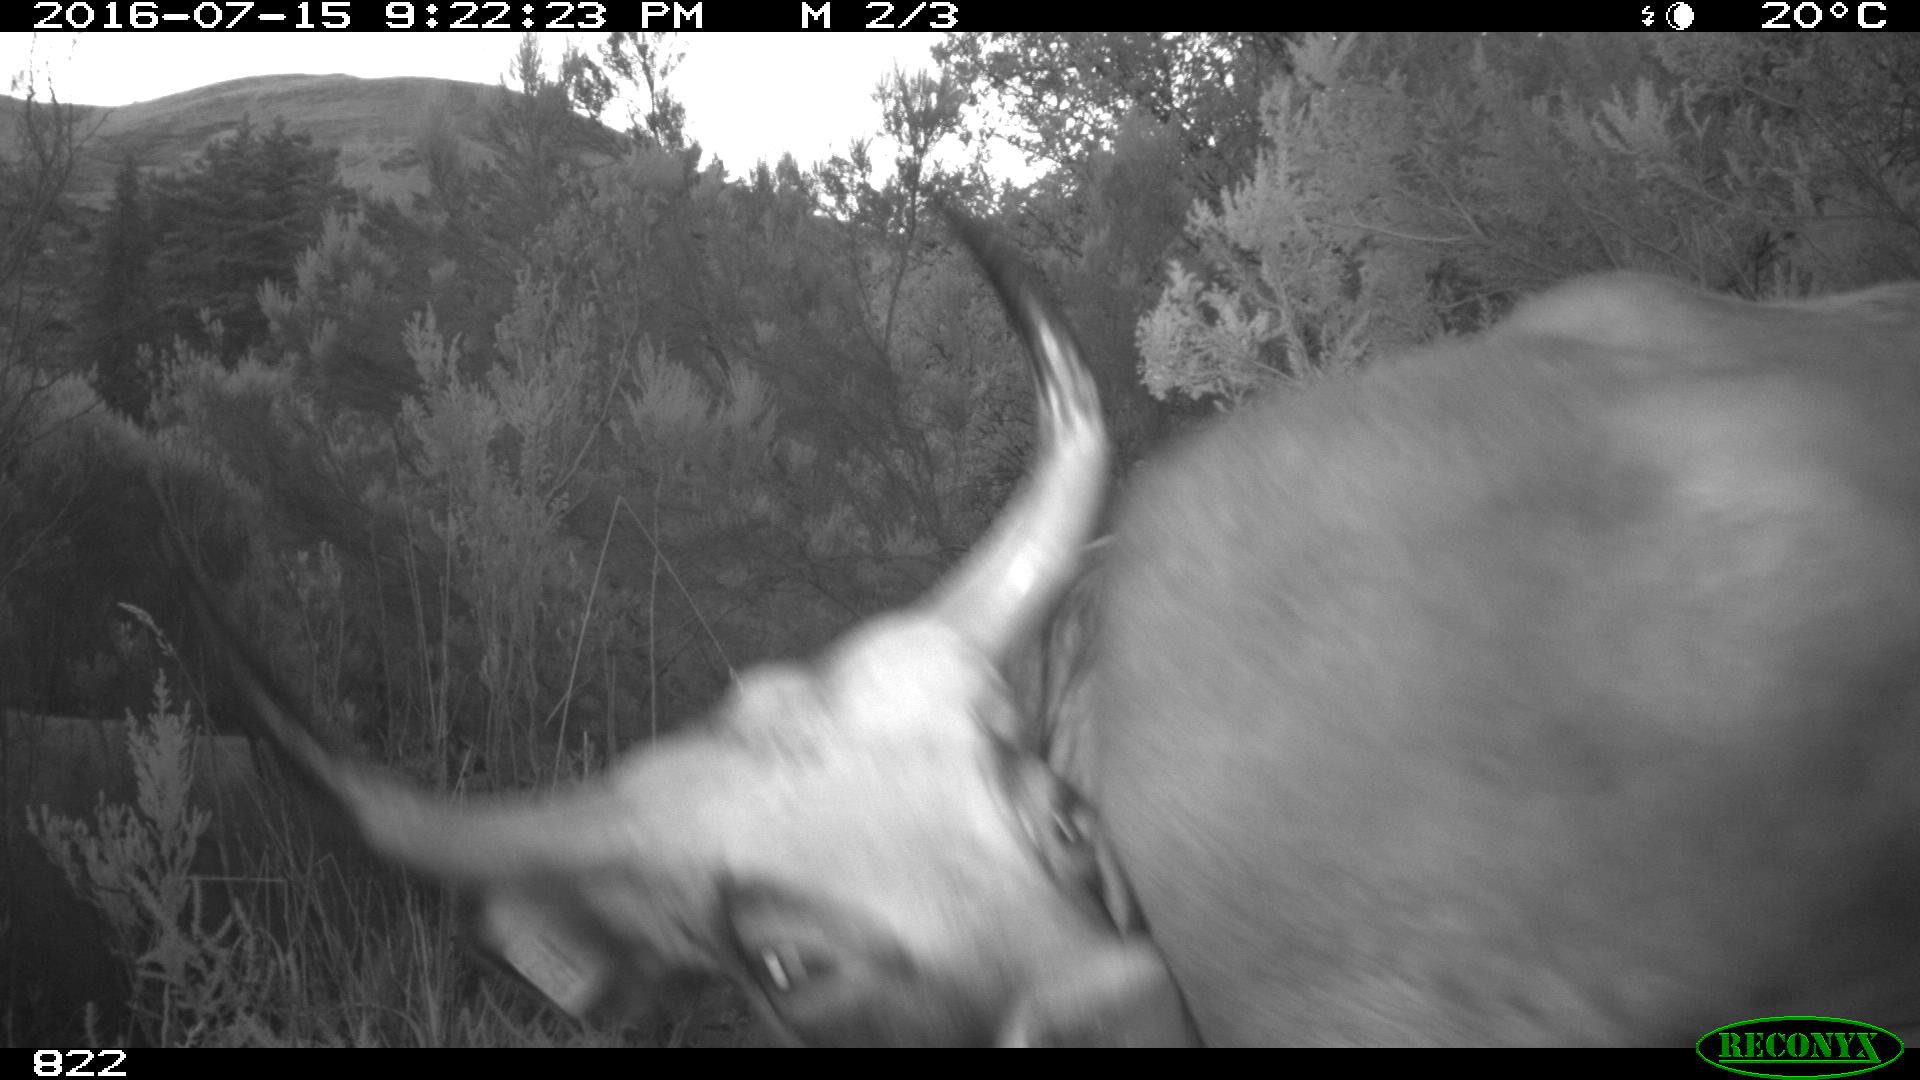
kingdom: Animalia
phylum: Chordata
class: Mammalia
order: Artiodactyla
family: Bovidae
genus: Bos
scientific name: Bos taurus
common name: Domesticated cattle
